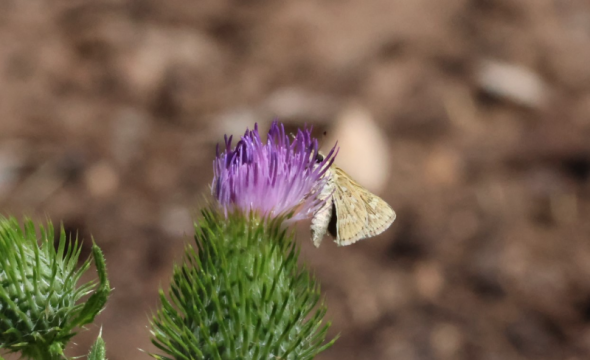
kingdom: Animalia
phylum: Arthropoda
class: Insecta
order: Lepidoptera
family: Hesperiidae
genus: Hylephila
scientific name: Hylephila phyleus
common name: Fiery Skipper
